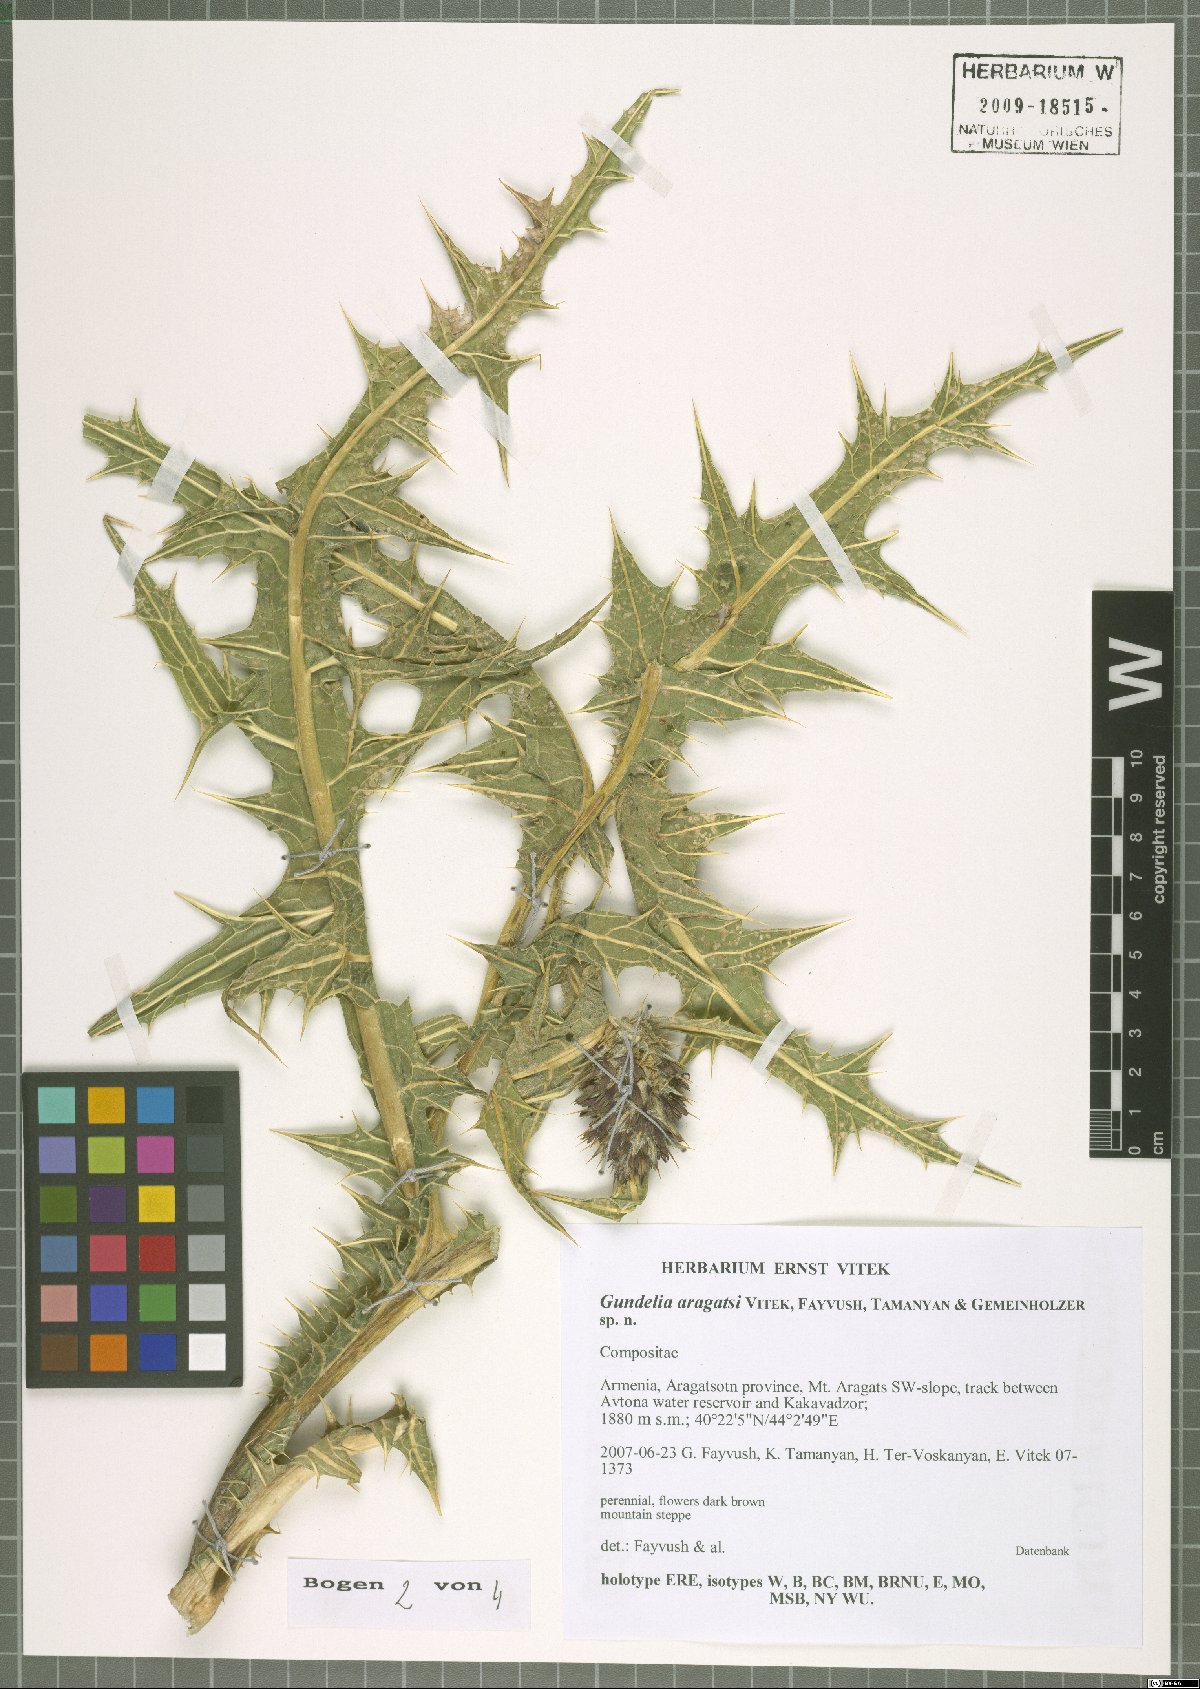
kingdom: Plantae
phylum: Tracheophyta
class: Magnoliopsida
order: Asterales
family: Asteraceae
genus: Gundelia
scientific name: Gundelia aragatsi
